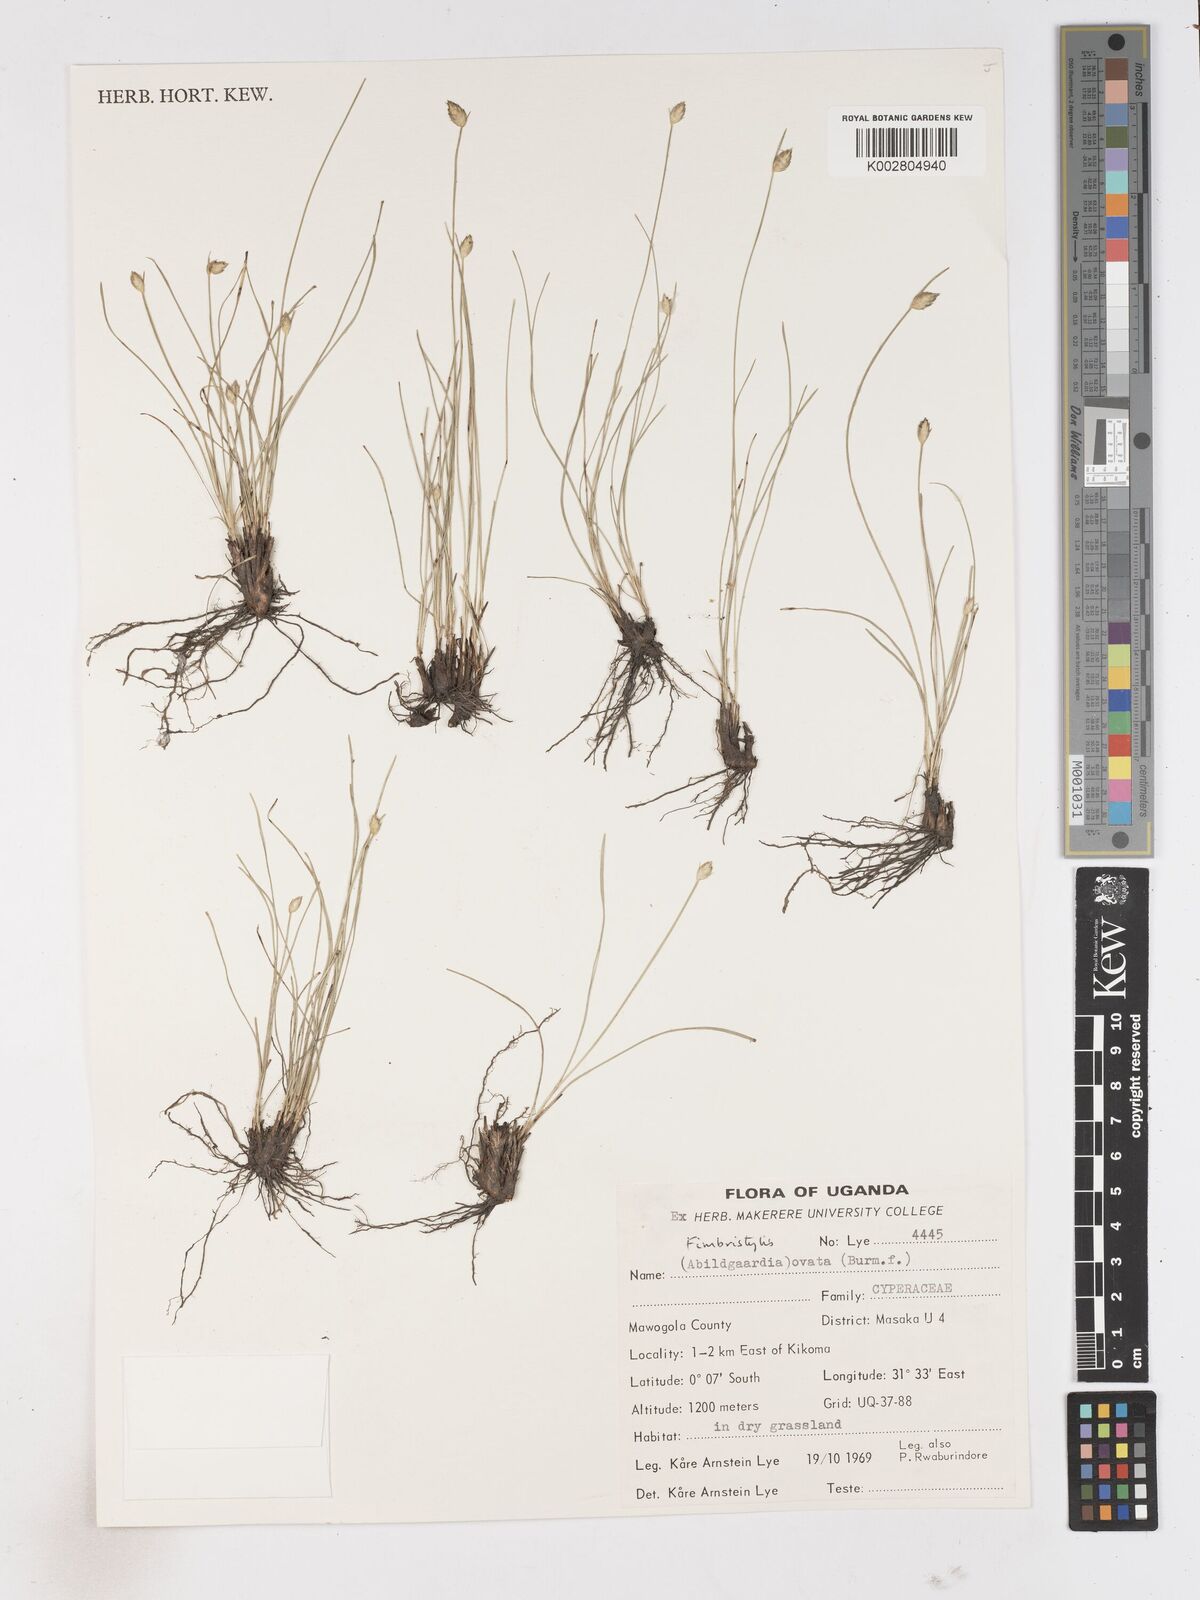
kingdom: Plantae
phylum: Tracheophyta
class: Liliopsida
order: Poales
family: Cyperaceae
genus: Abildgaardia
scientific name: Abildgaardia ovata
